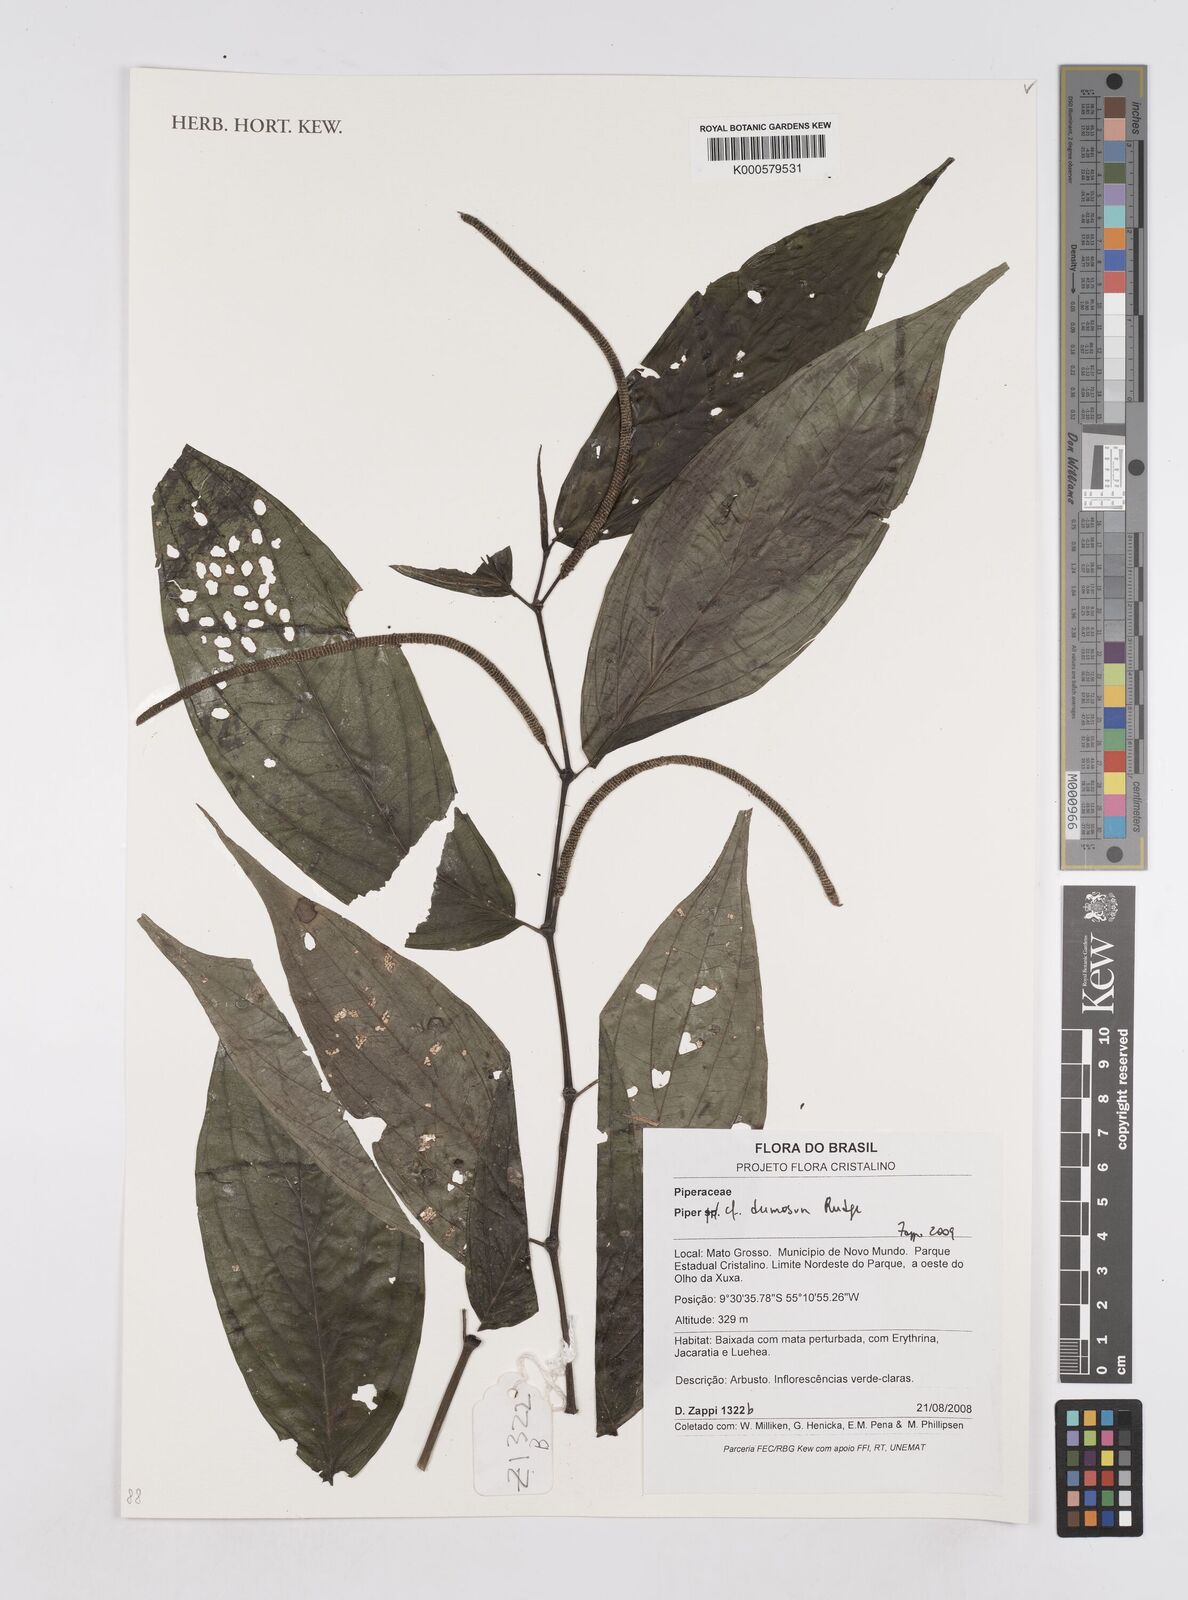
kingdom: Plantae
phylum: Tracheophyta
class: Magnoliopsida
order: Piperales
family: Piperaceae
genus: Piper
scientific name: Piper dumosum
